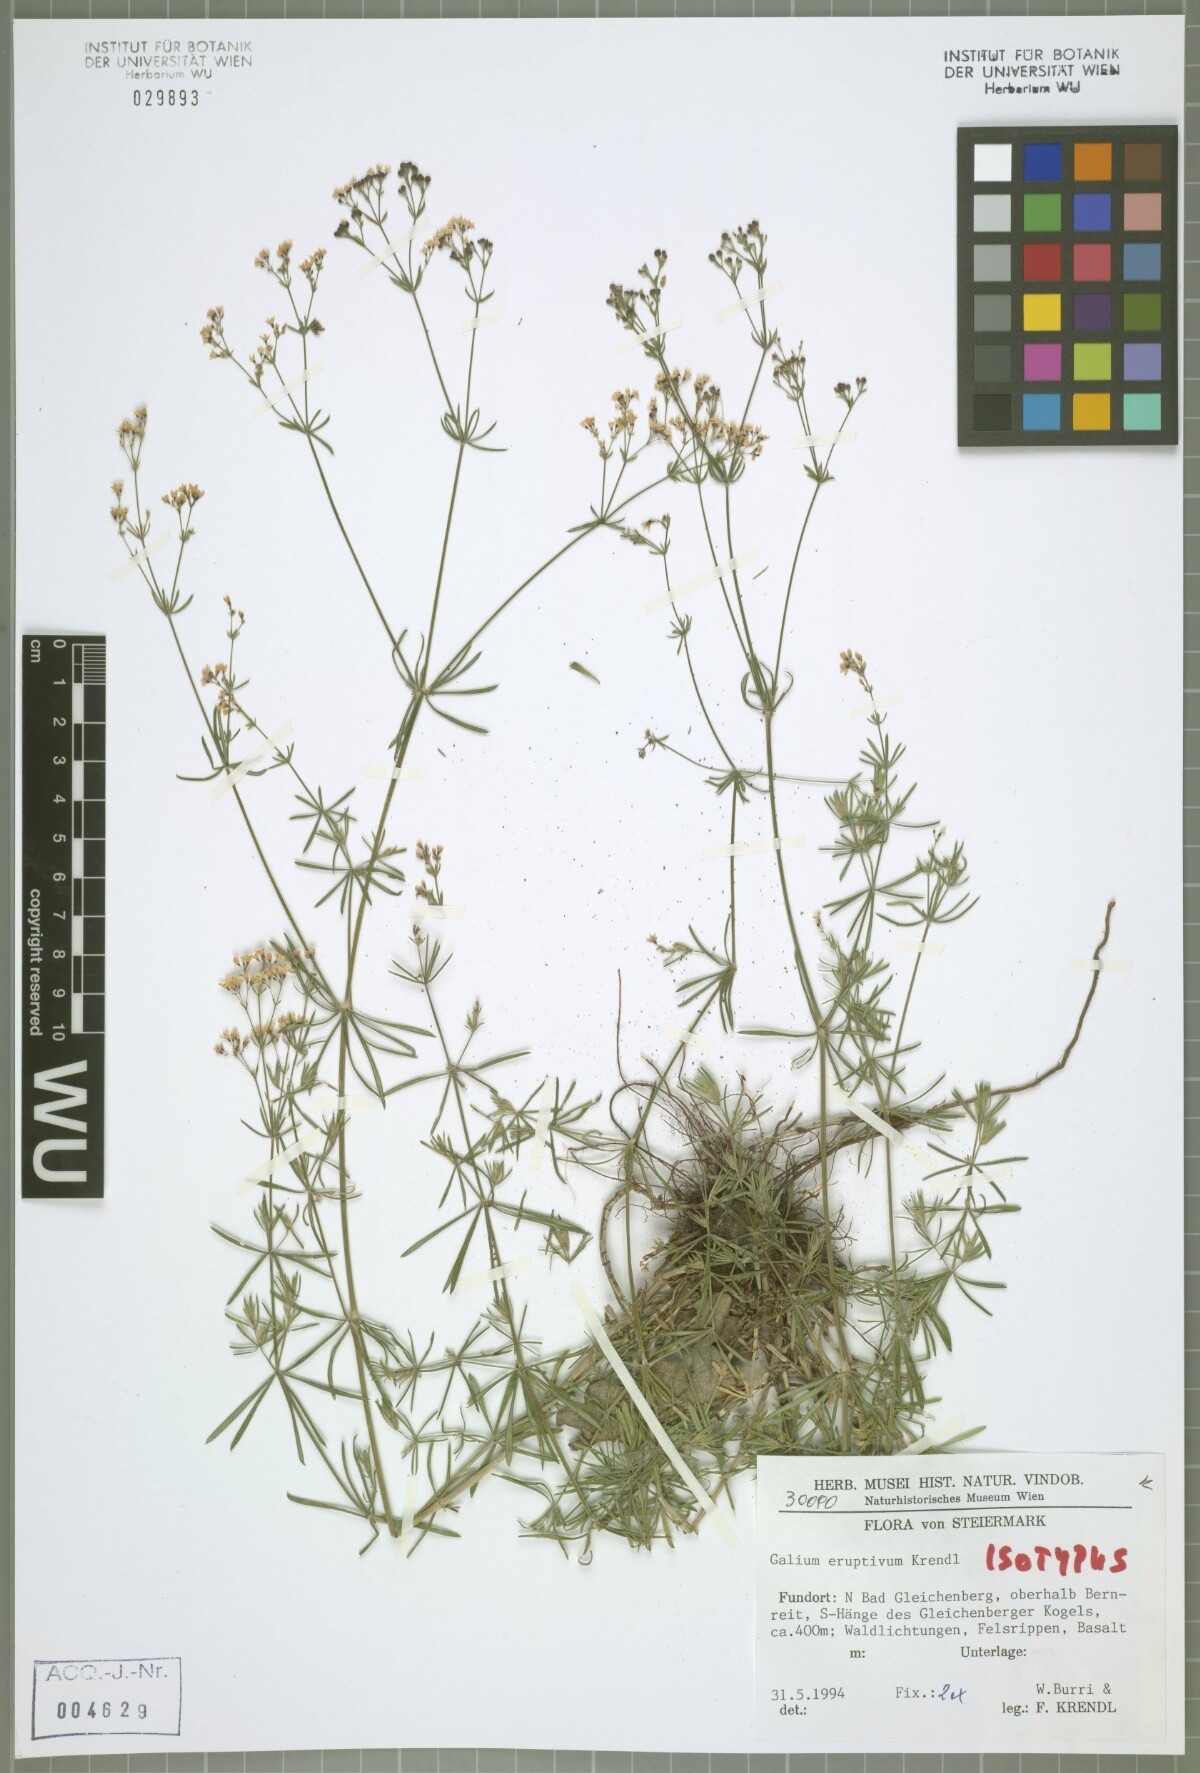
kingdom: Plantae
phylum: Tracheophyta
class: Magnoliopsida
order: Gentianales
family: Rubiaceae
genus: Galium
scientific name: Galium eruptivum
